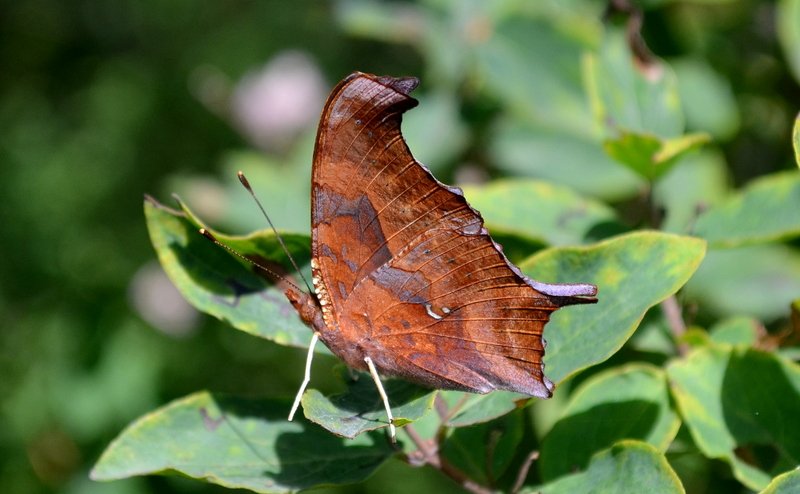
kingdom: Animalia
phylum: Arthropoda
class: Insecta
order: Lepidoptera
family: Nymphalidae
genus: Polygonia
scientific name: Polygonia interrogationis
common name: Question Mark
